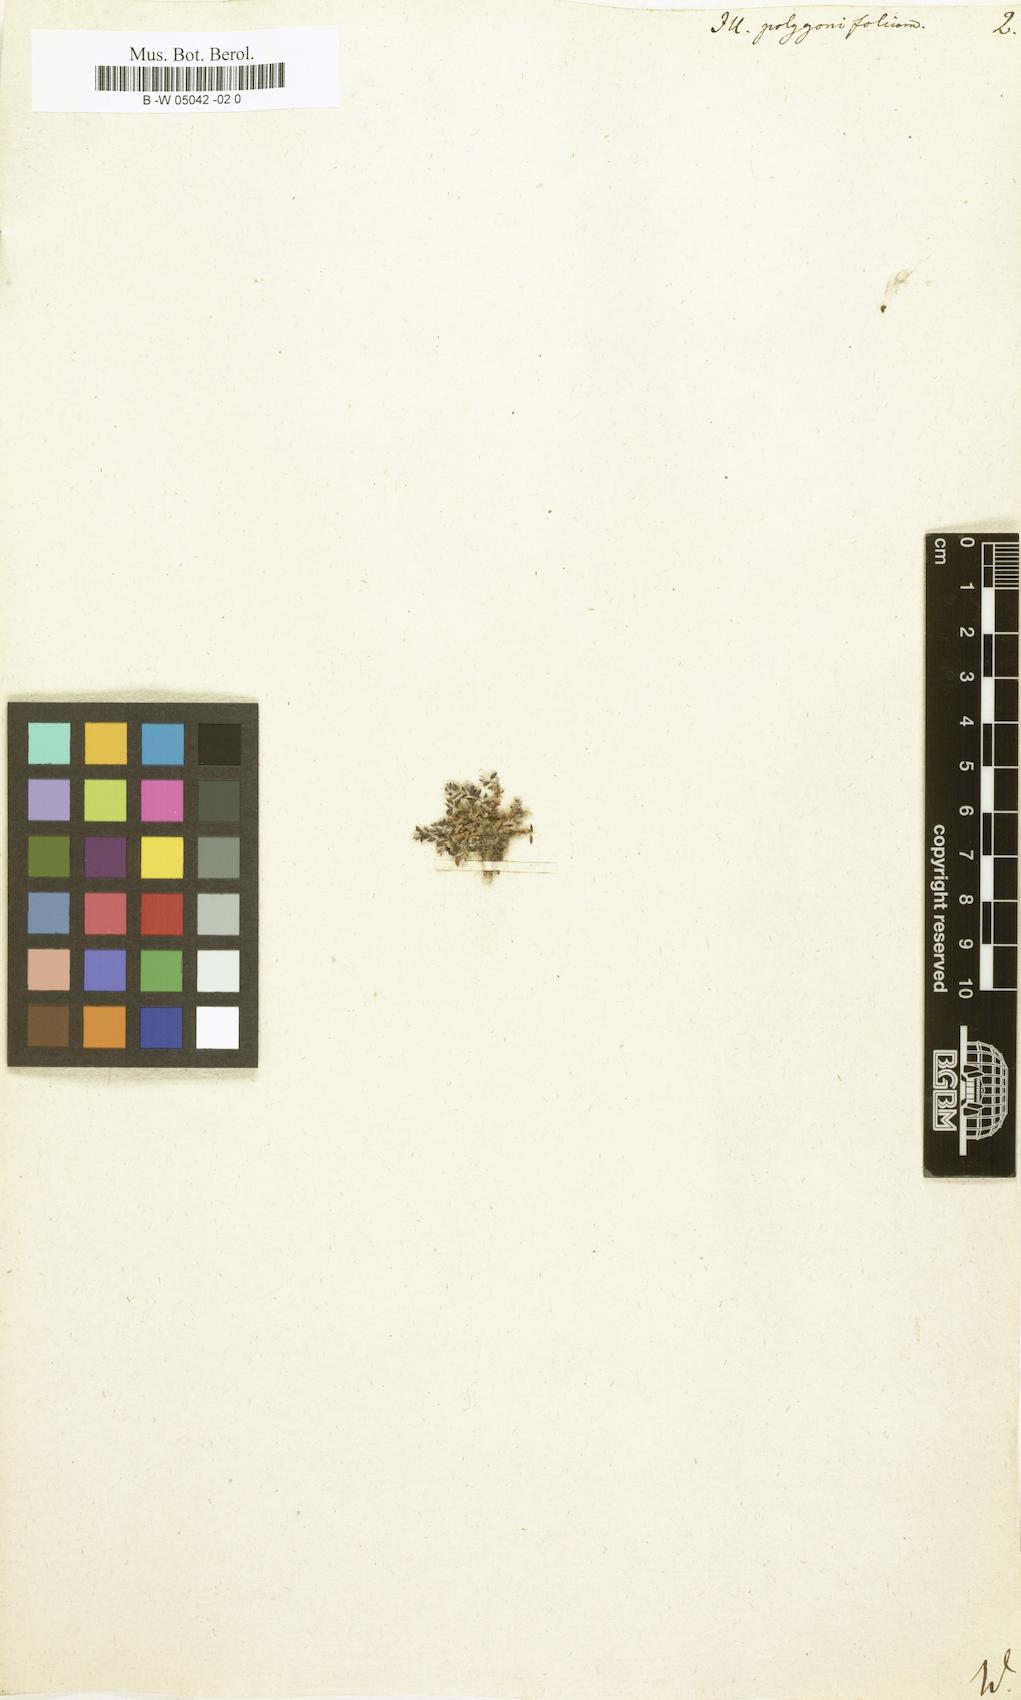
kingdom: Plantae
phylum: Tracheophyta
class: Magnoliopsida
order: Caryophyllales
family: Caryophyllaceae
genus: Paronychia
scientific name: Paronychia polygonifolia
